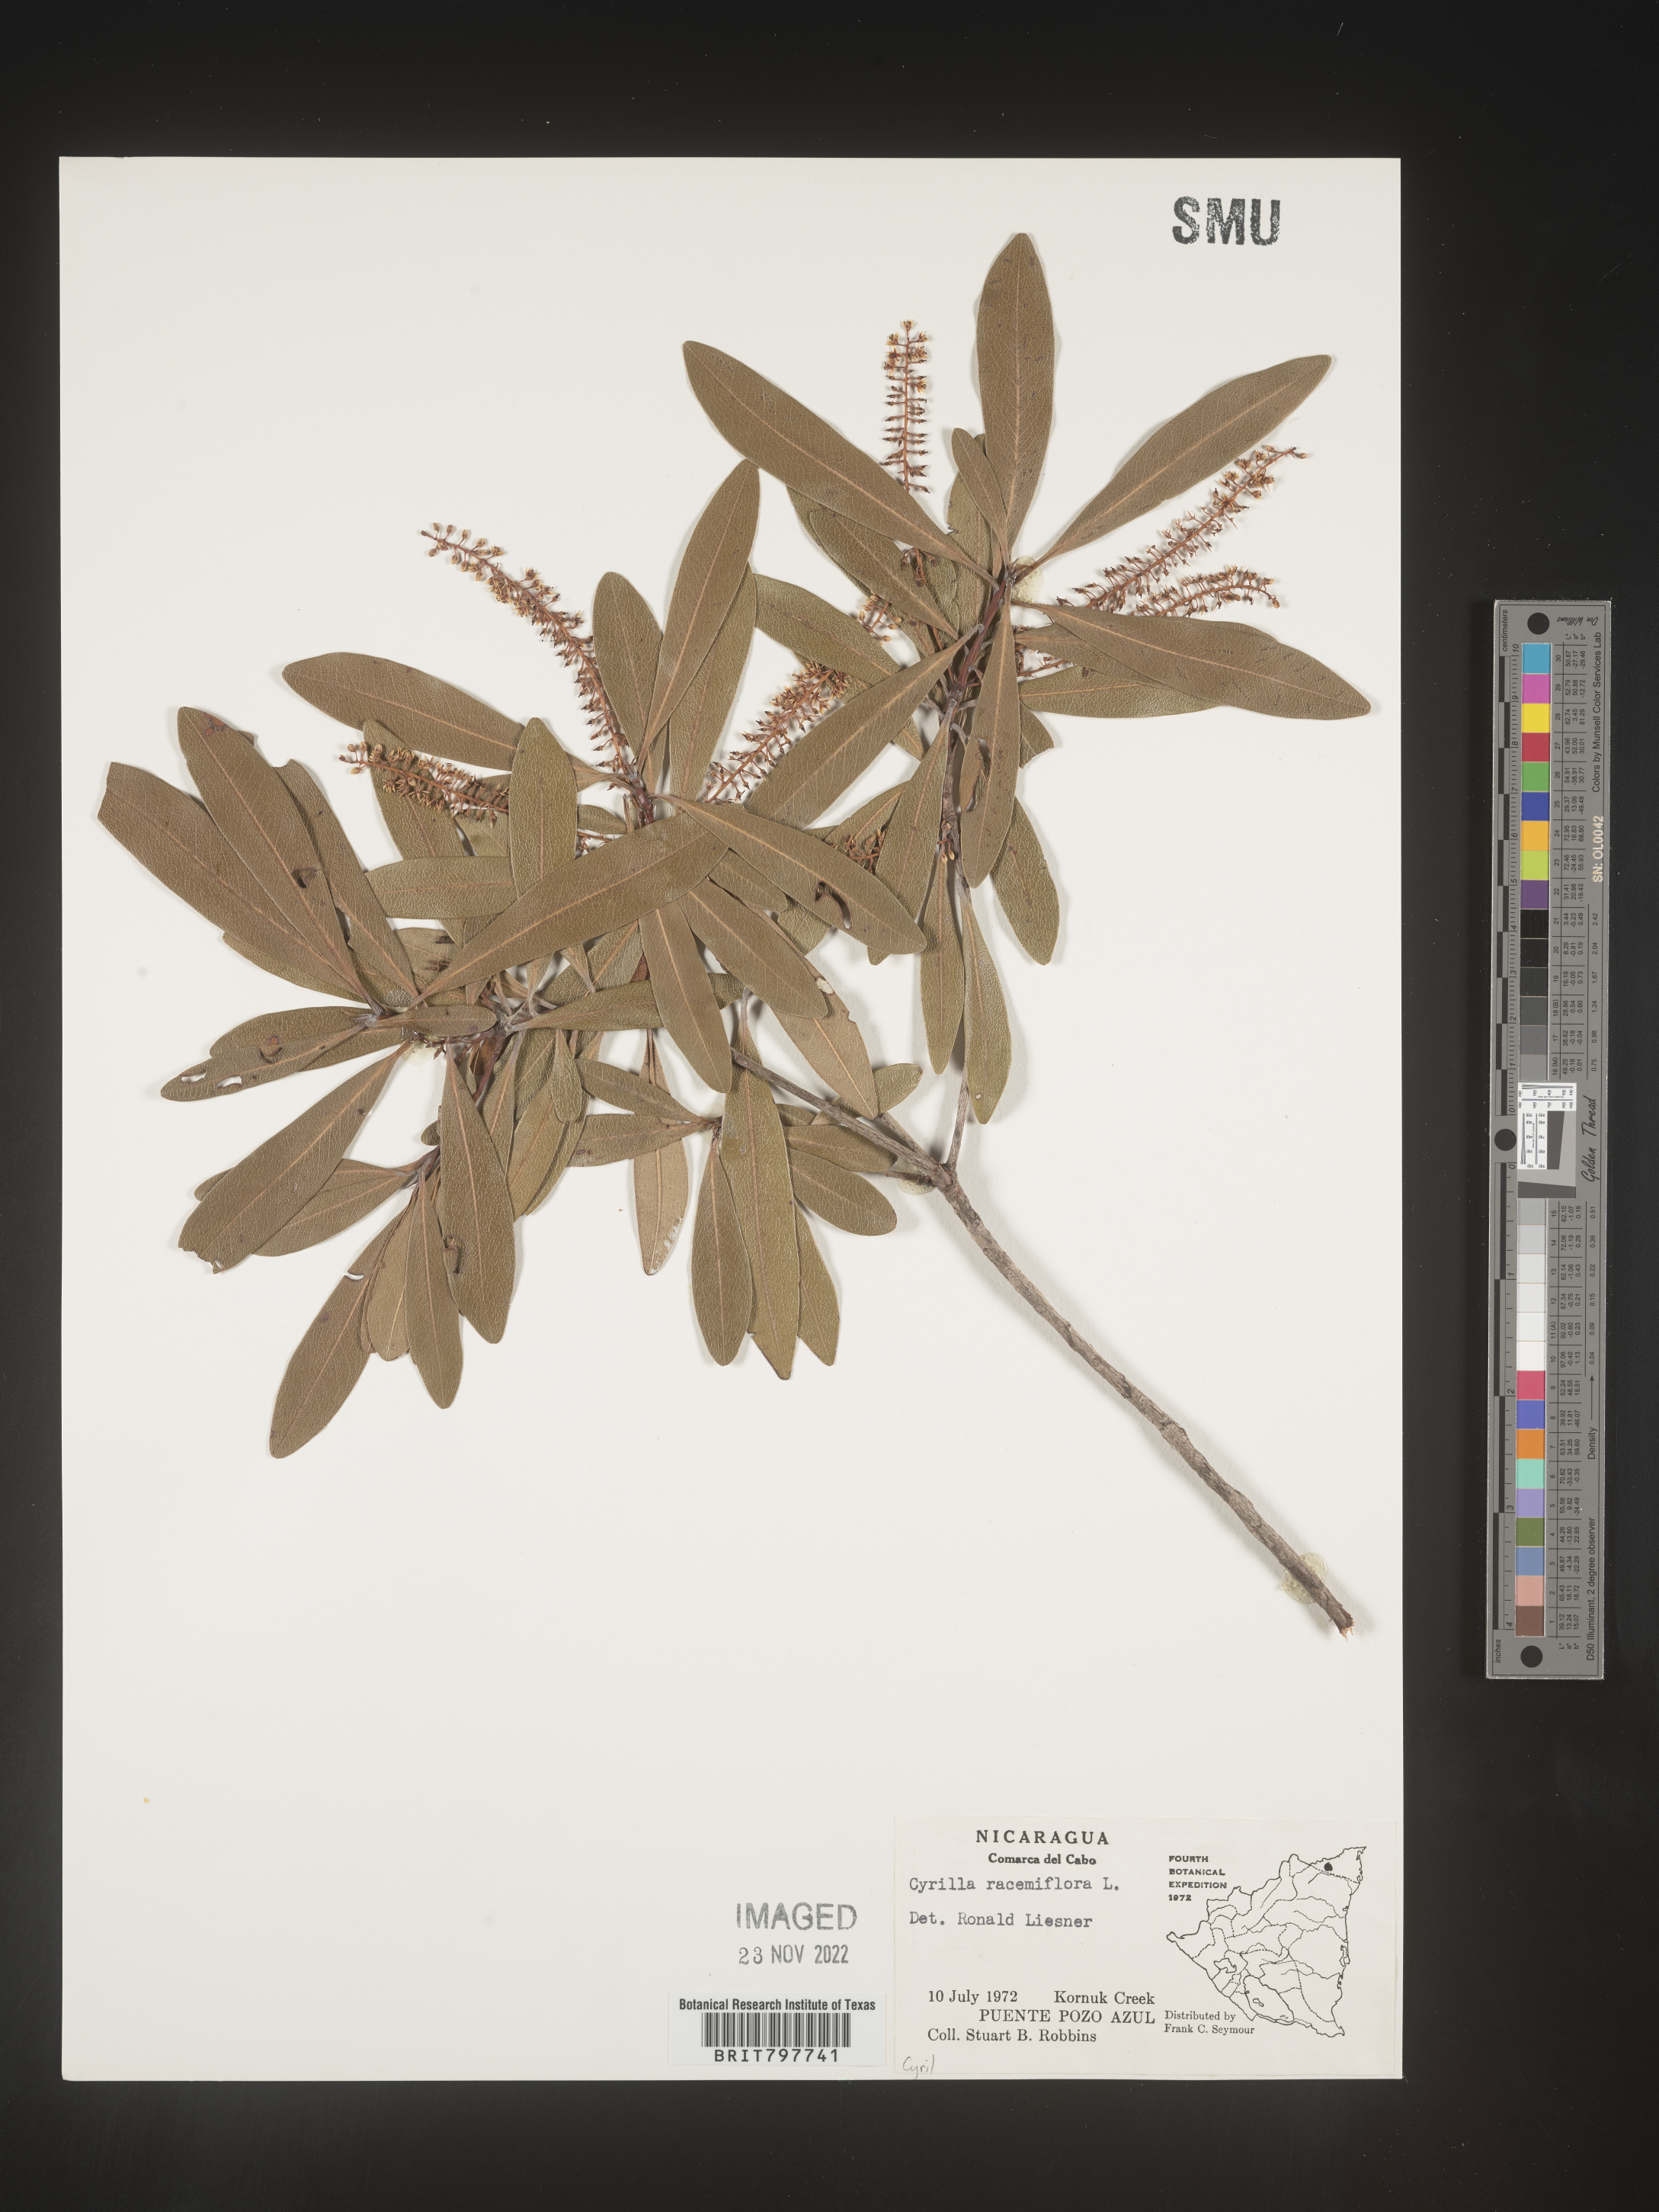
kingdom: Plantae
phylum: Tracheophyta
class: Magnoliopsida
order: Ericales
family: Cyrillaceae
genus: Cyrilla
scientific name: Cyrilla
